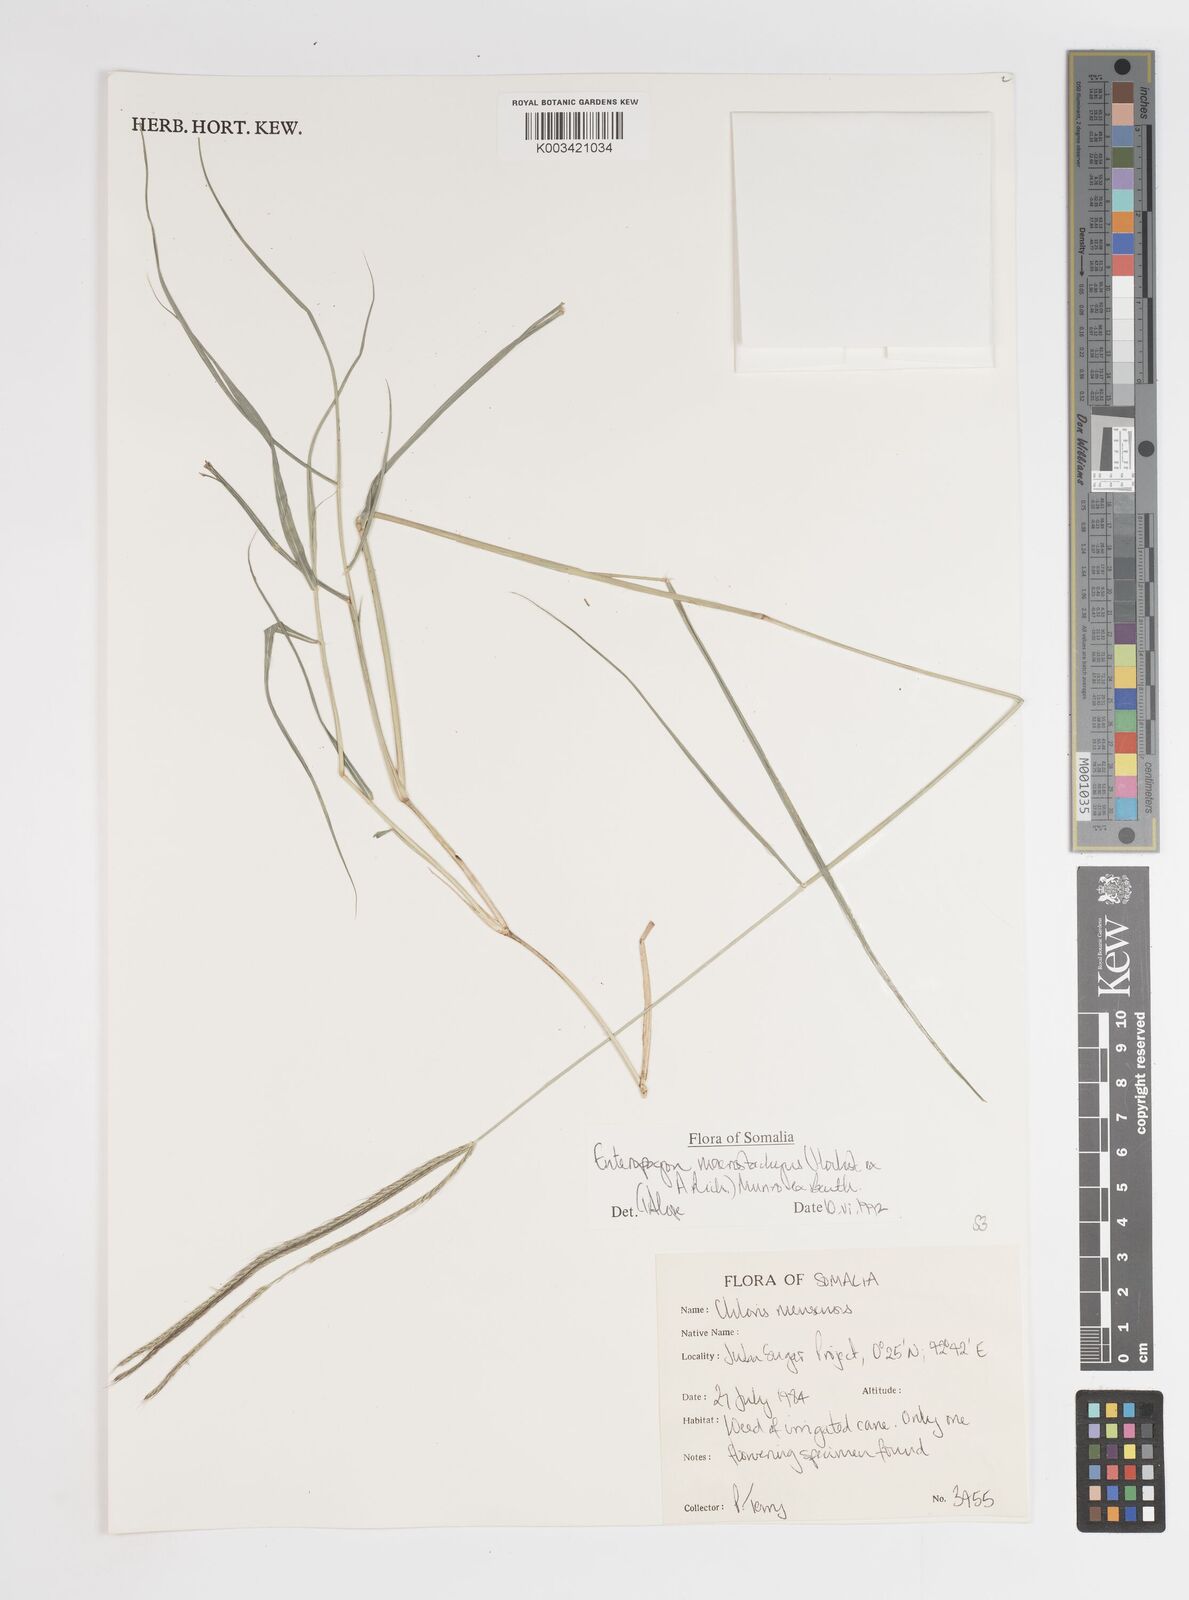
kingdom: Plantae
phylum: Tracheophyta
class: Liliopsida
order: Poales
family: Poaceae
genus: Enteropogon
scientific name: Enteropogon macrostachyus
